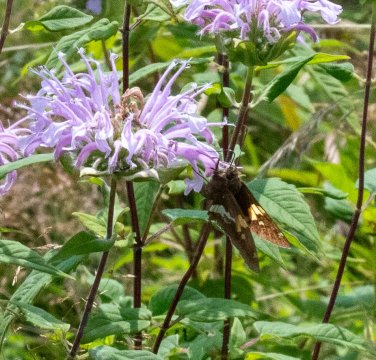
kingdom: Animalia
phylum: Arthropoda
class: Insecta
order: Lepidoptera
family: Hesperiidae
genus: Epargyreus
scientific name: Epargyreus clarus
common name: Silver-spotted Skipper
